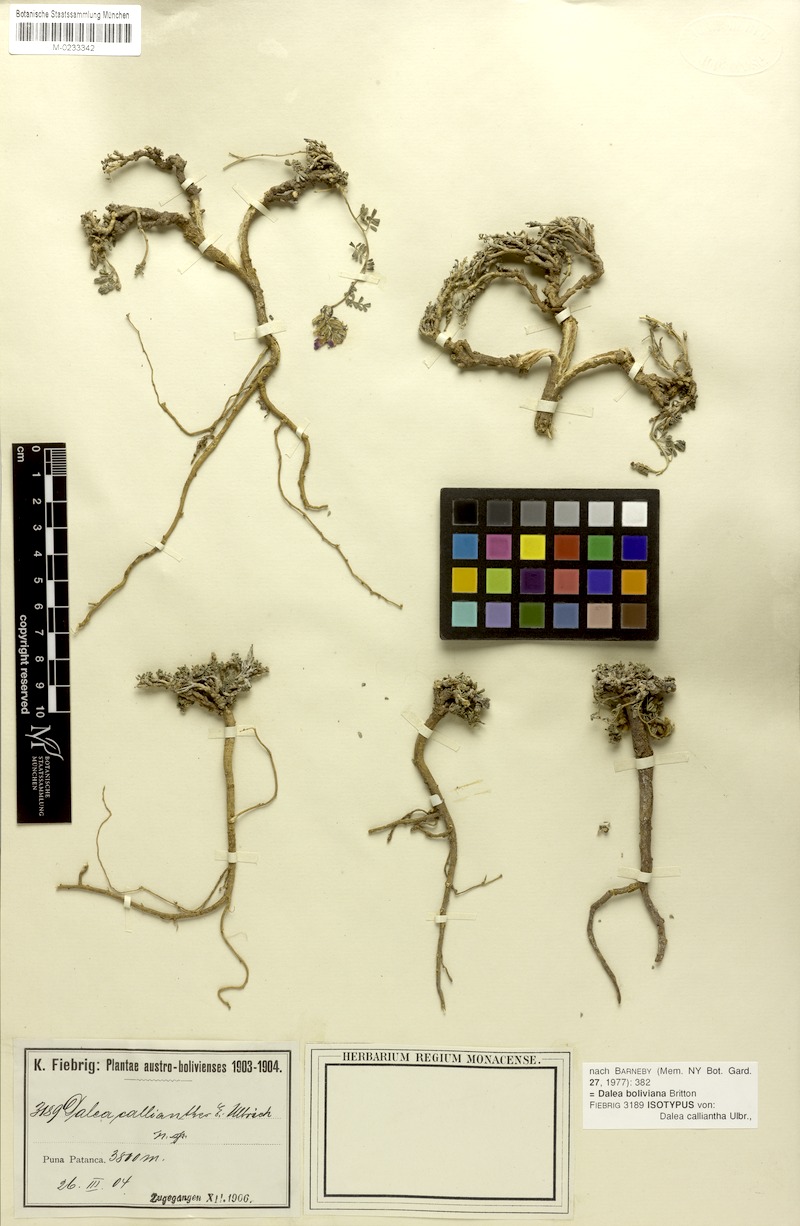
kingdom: Plantae
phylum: Tracheophyta
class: Magnoliopsida
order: Fabales
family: Fabaceae
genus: Dalea
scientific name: Dalea boliviana
